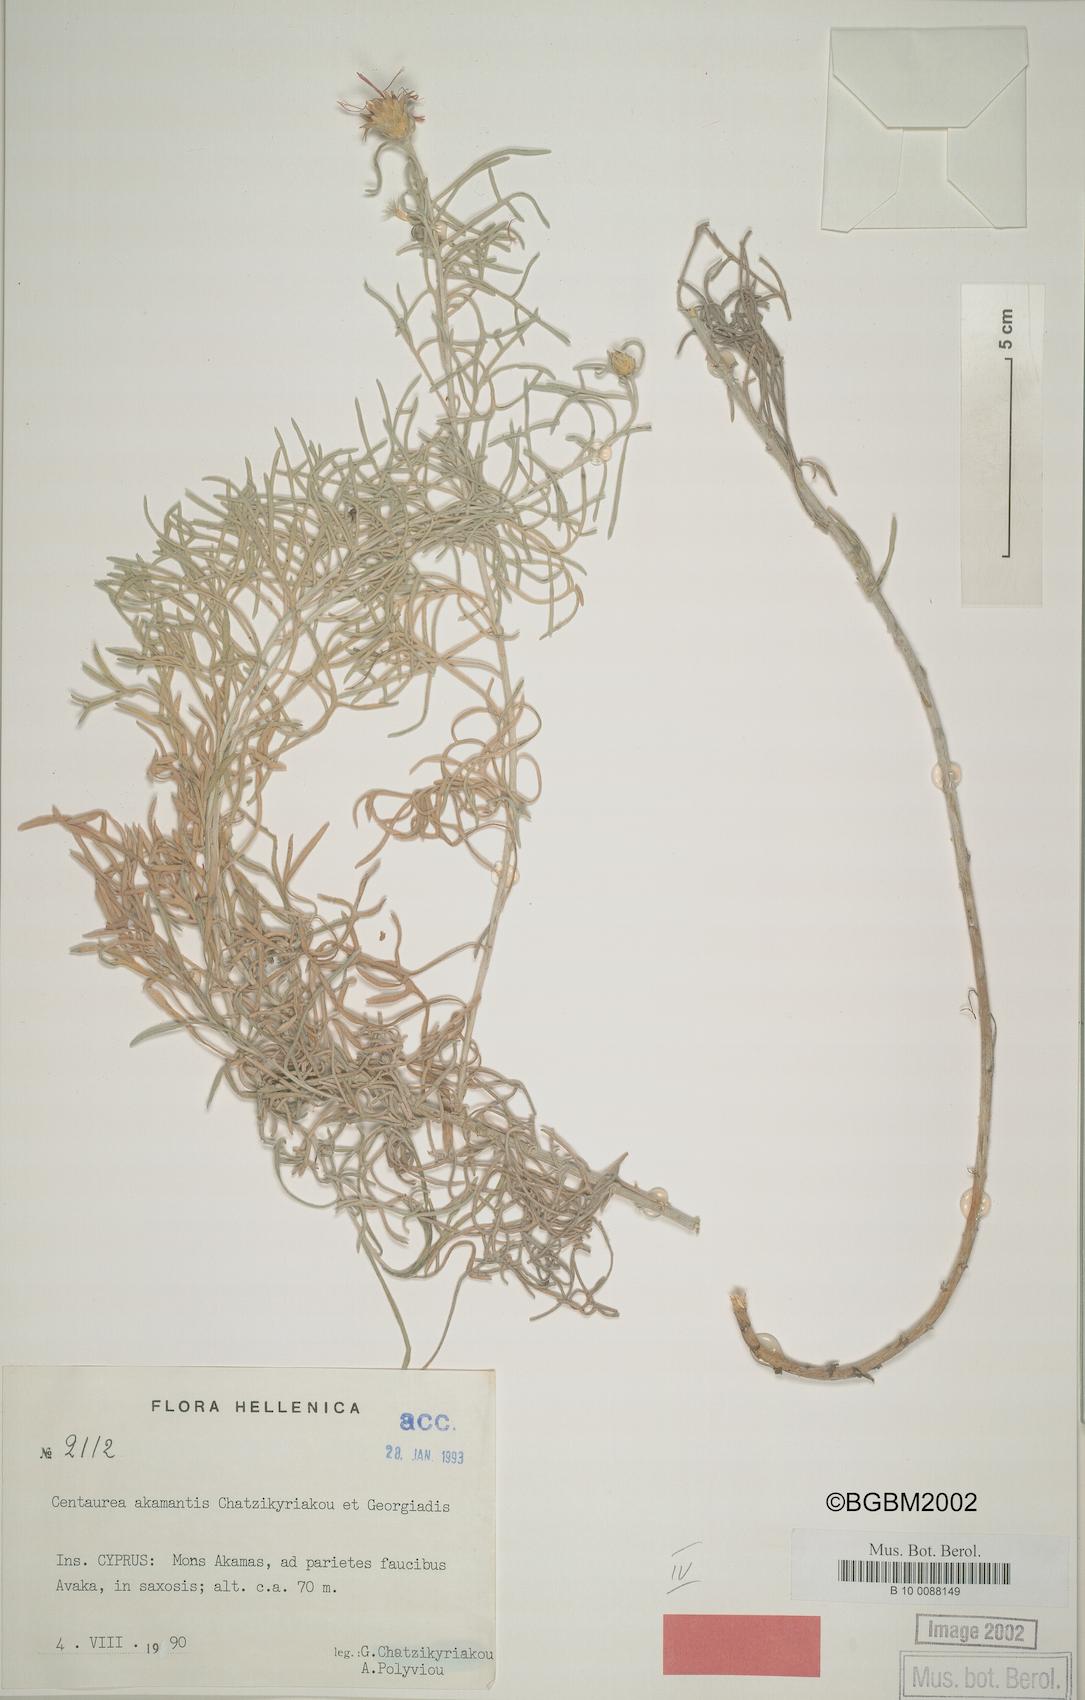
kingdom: Plantae
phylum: Tracheophyta
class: Magnoliopsida
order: Asterales
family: Asteraceae
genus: Centaurea
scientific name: Centaurea akamantis
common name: Akamas centaury
